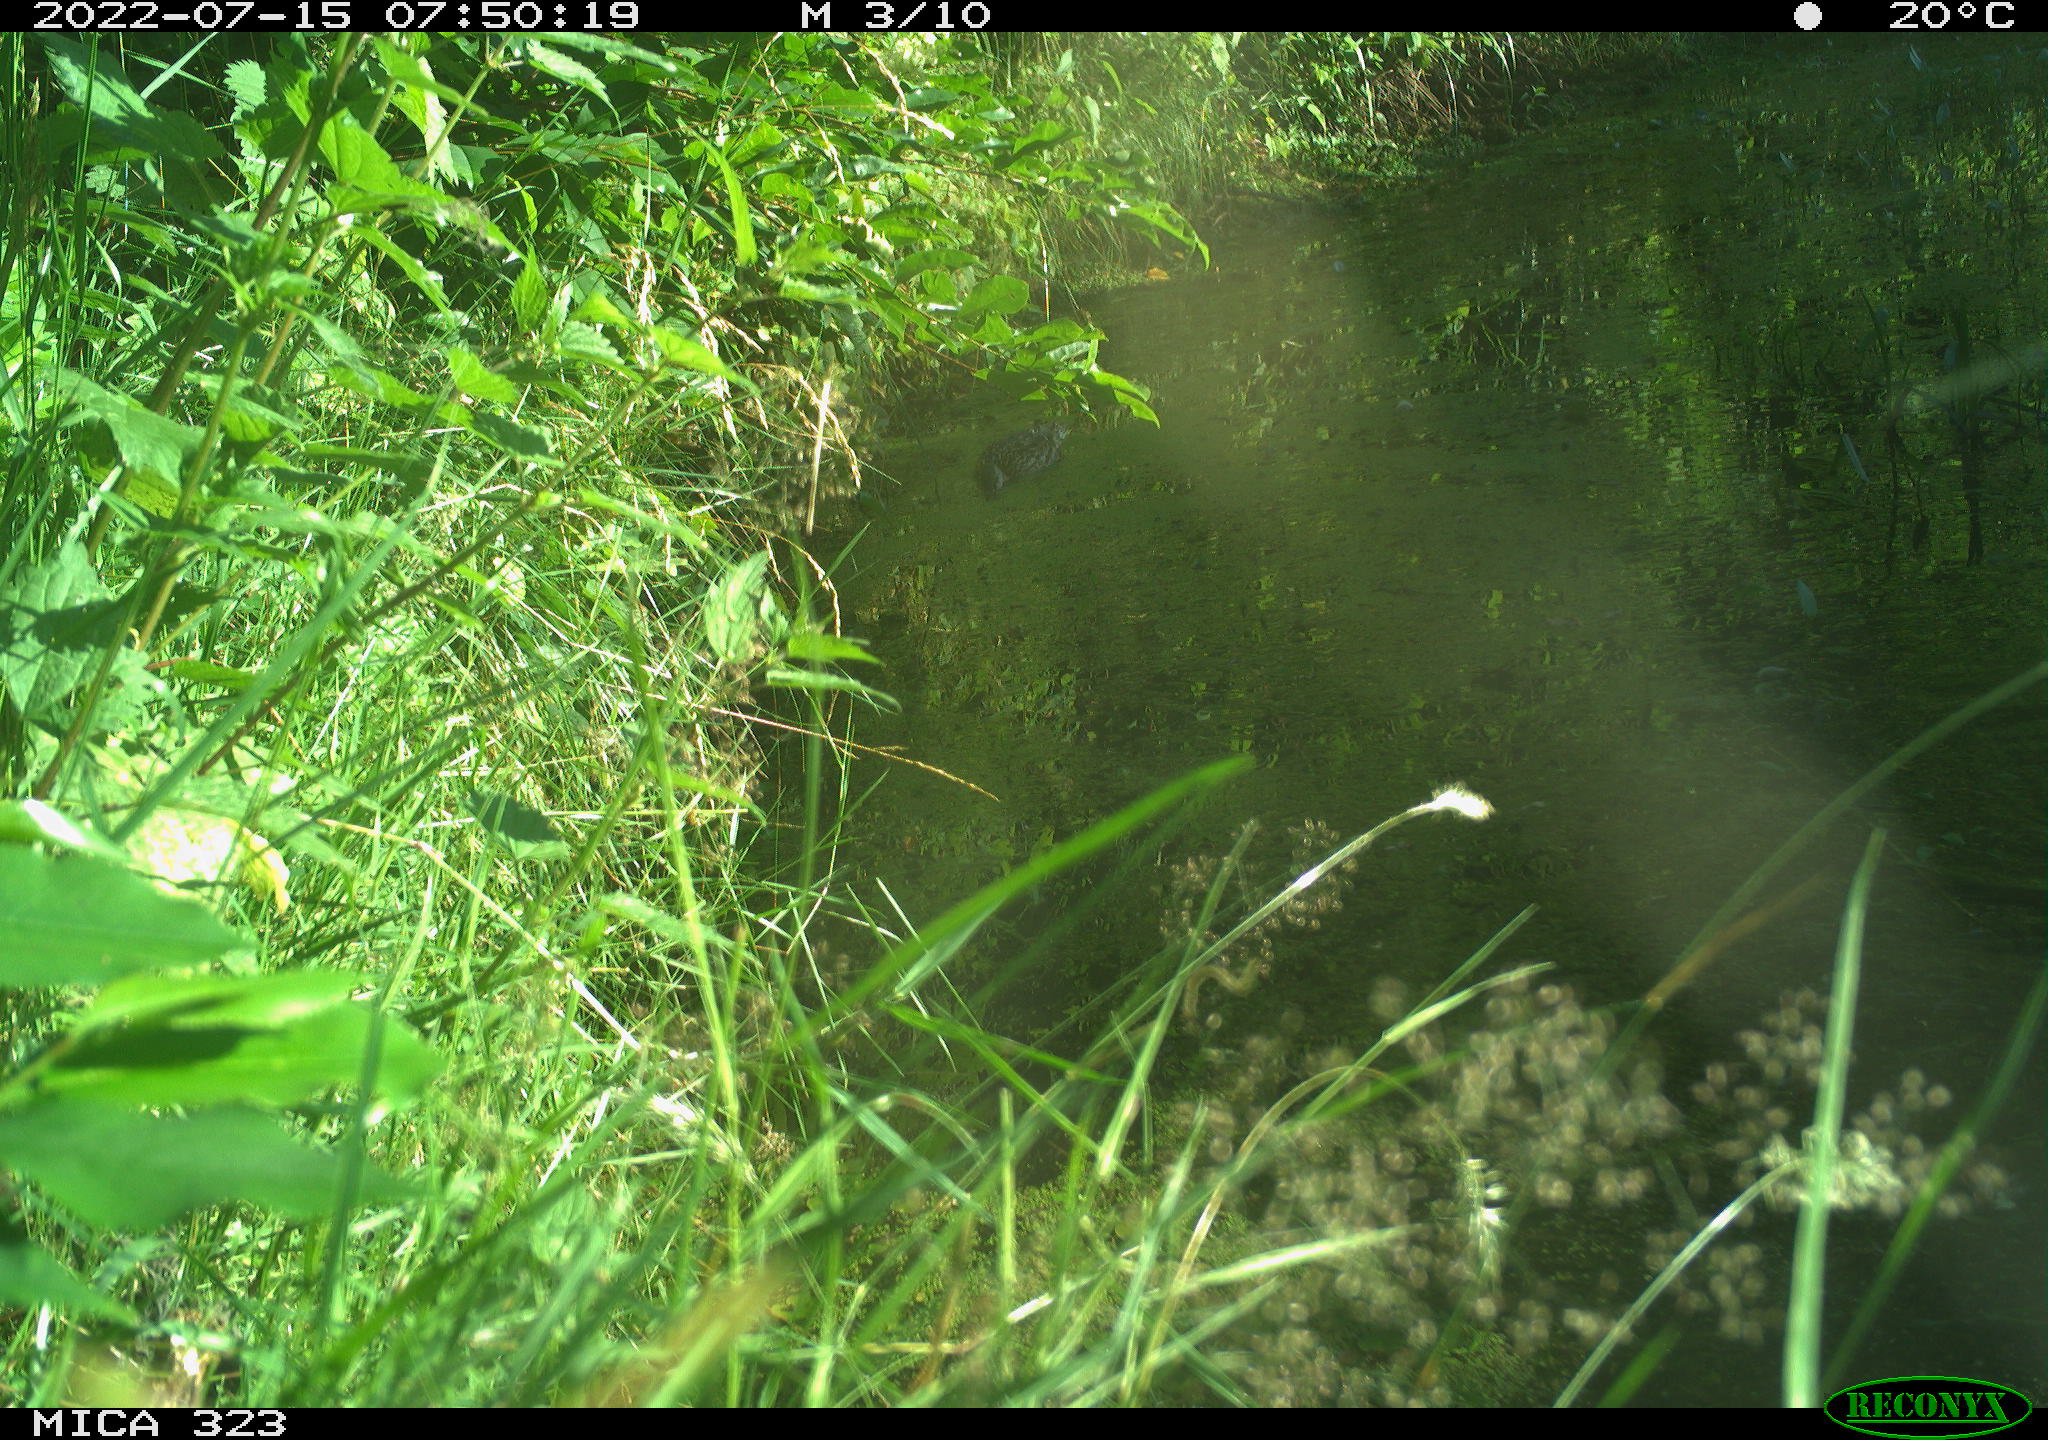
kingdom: Animalia
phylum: Chordata
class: Aves
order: Anseriformes
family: Anatidae
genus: Anas
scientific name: Anas
